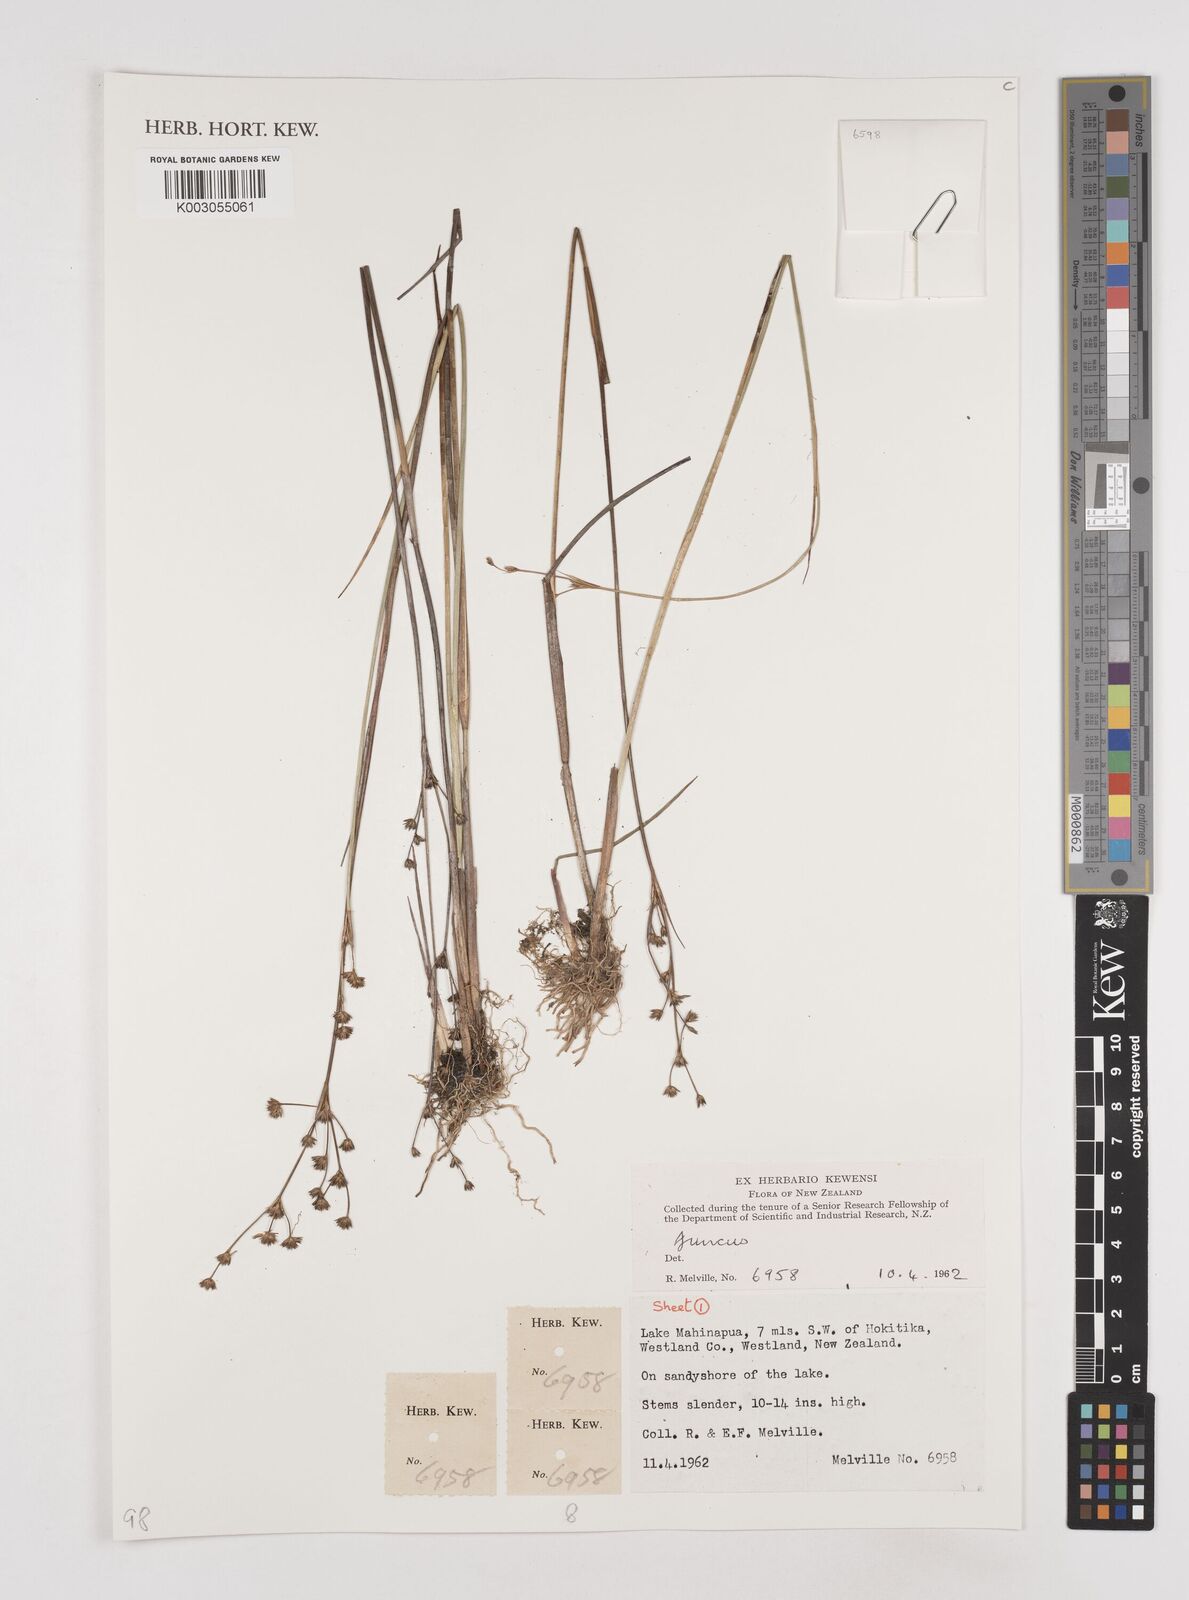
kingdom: Plantae
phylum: Tracheophyta
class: Liliopsida
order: Poales
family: Juncaceae
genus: Juncus
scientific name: Juncus
